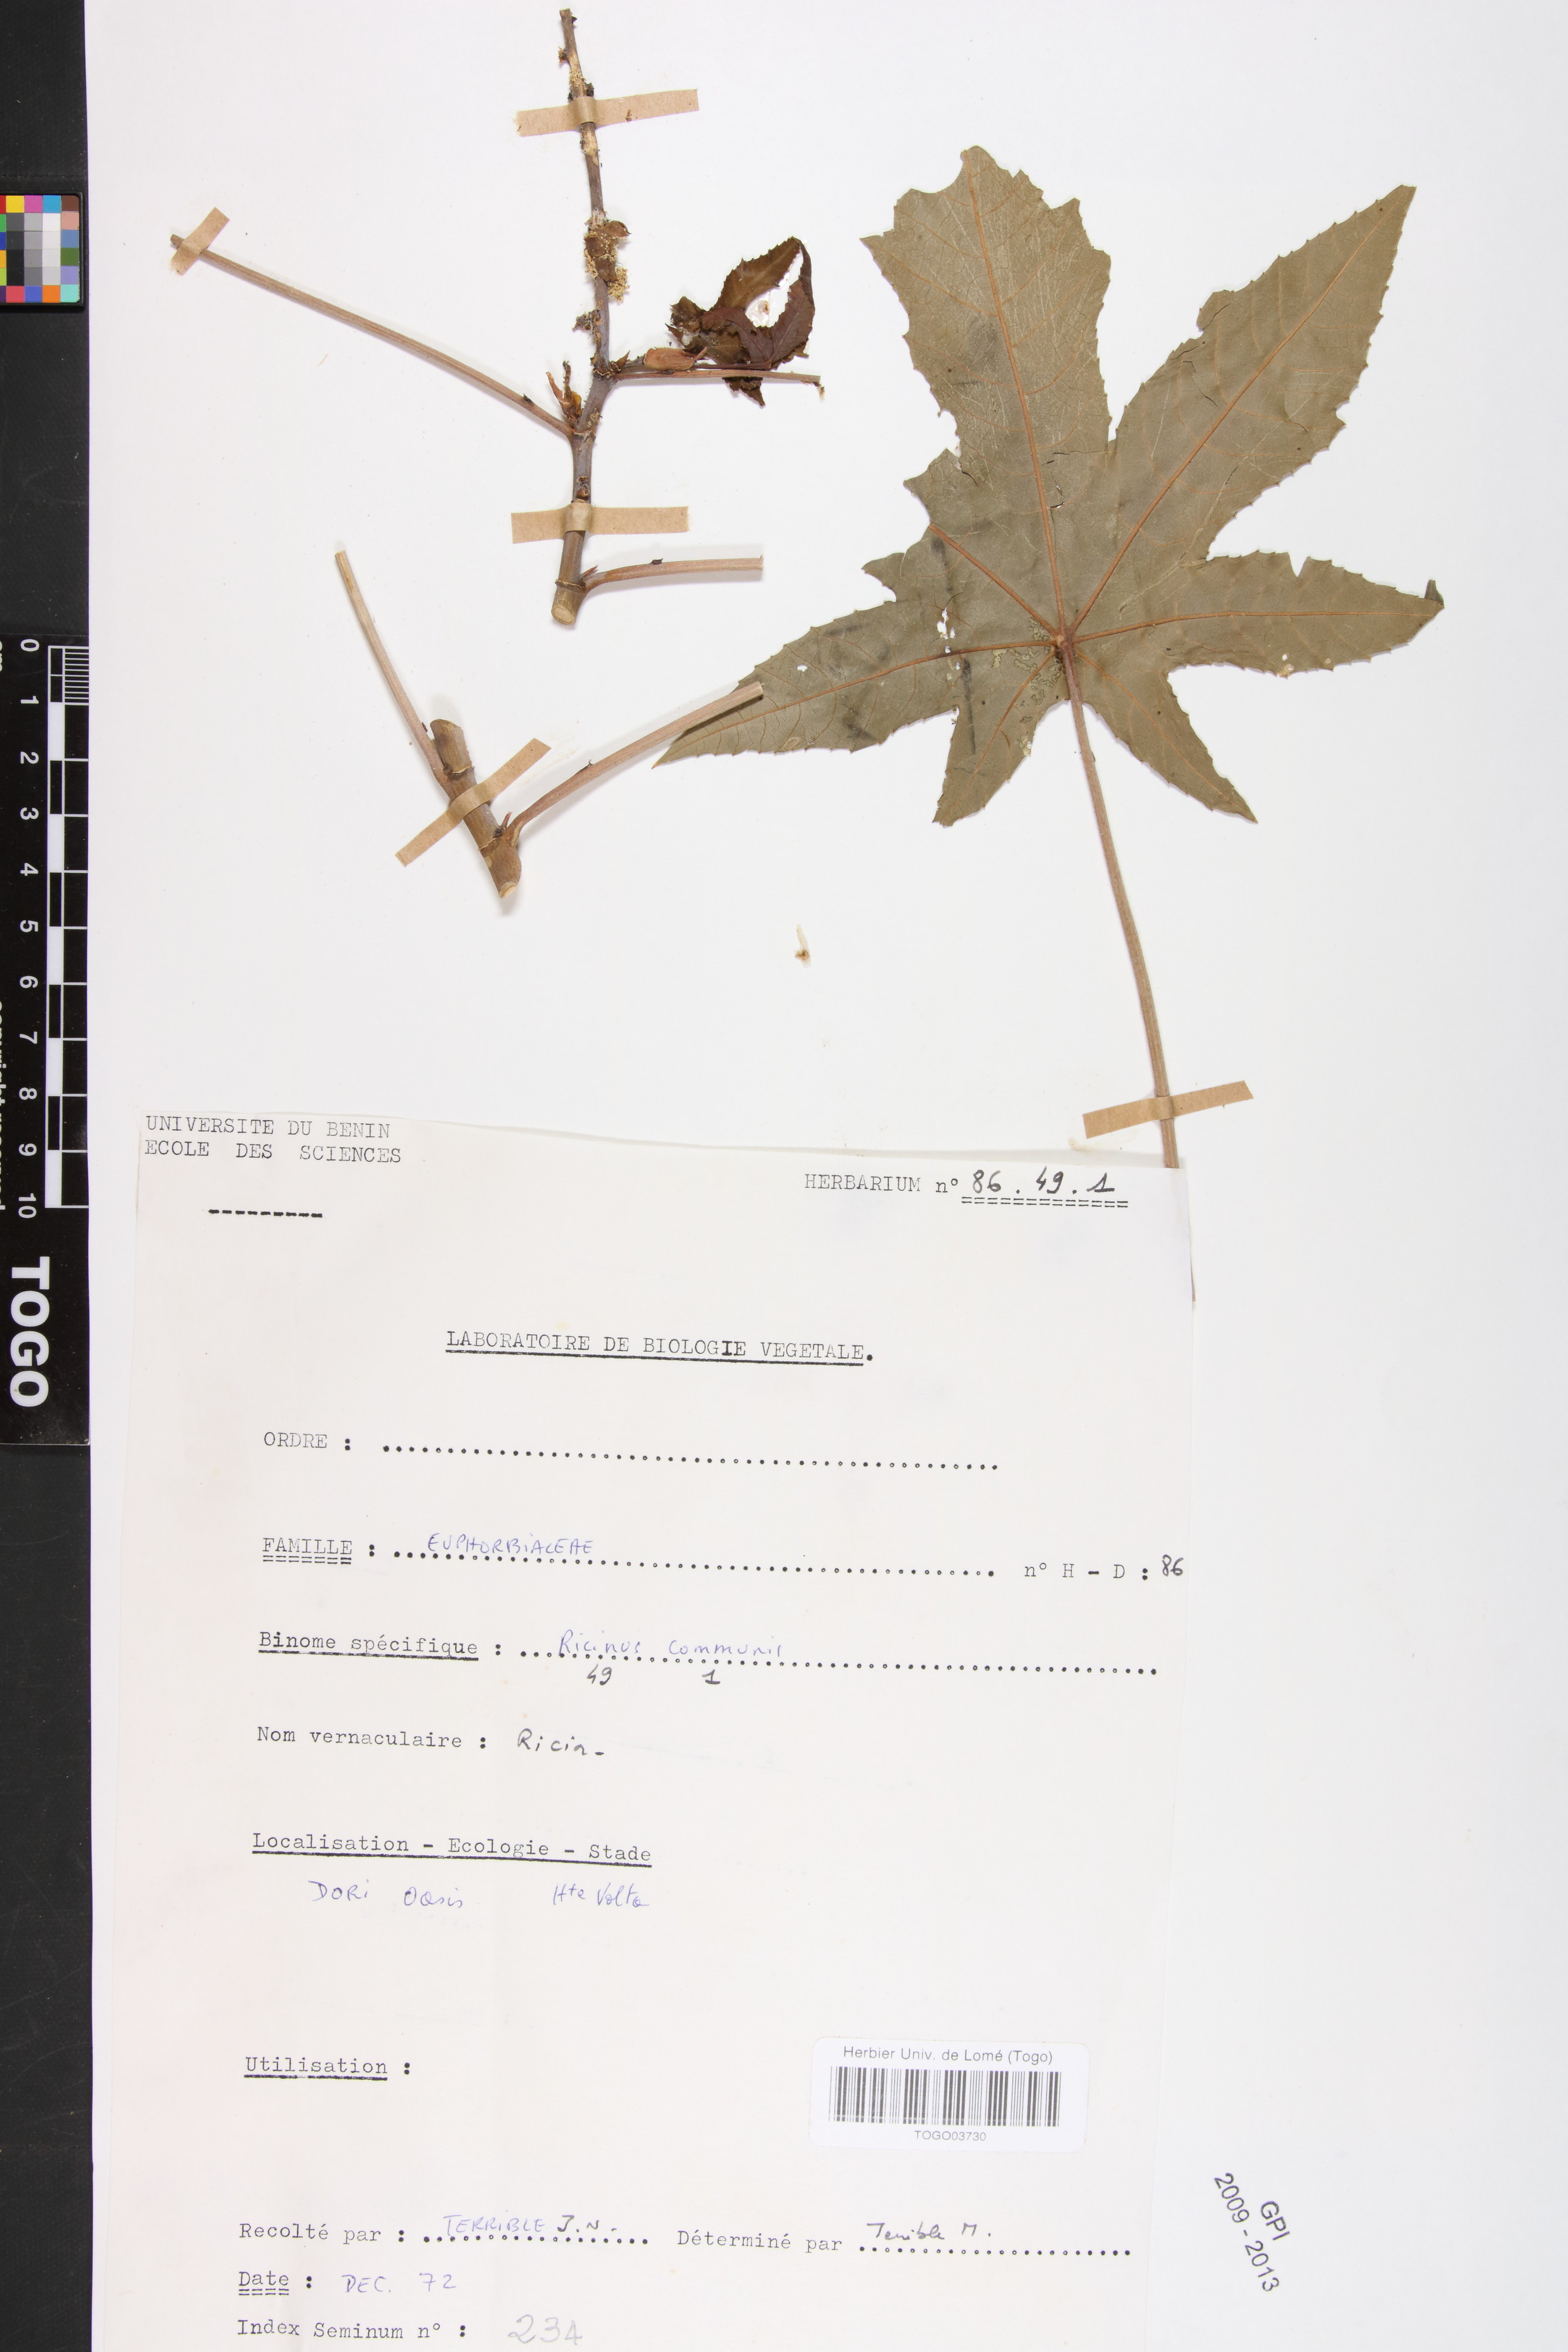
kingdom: Plantae
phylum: Tracheophyta
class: Magnoliopsida
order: Malpighiales
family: Euphorbiaceae
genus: Ricinus
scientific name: Ricinus communis
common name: Castor-oil-plant
